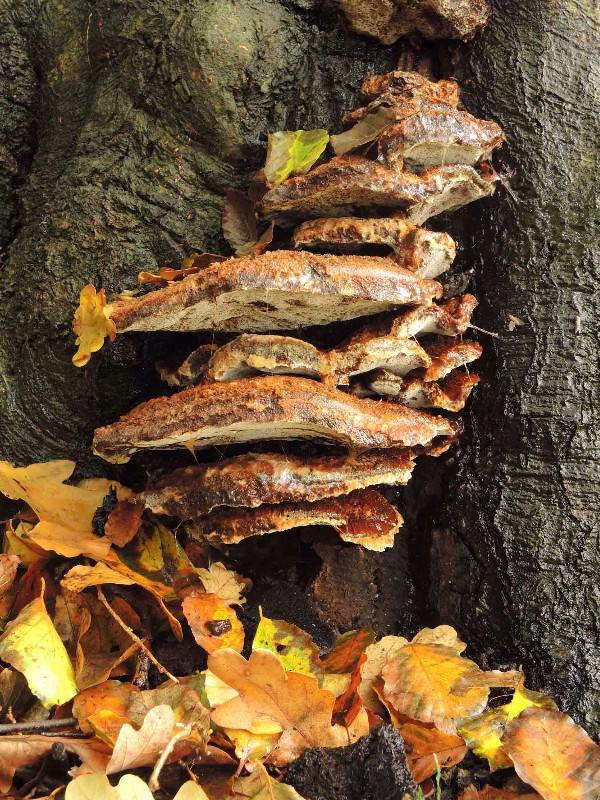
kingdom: Fungi
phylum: Basidiomycota
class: Agaricomycetes
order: Hymenochaetales
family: Hymenochaetaceae
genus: Inonotus
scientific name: Inonotus cuticularis
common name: kroghåret spejlporesvamp
